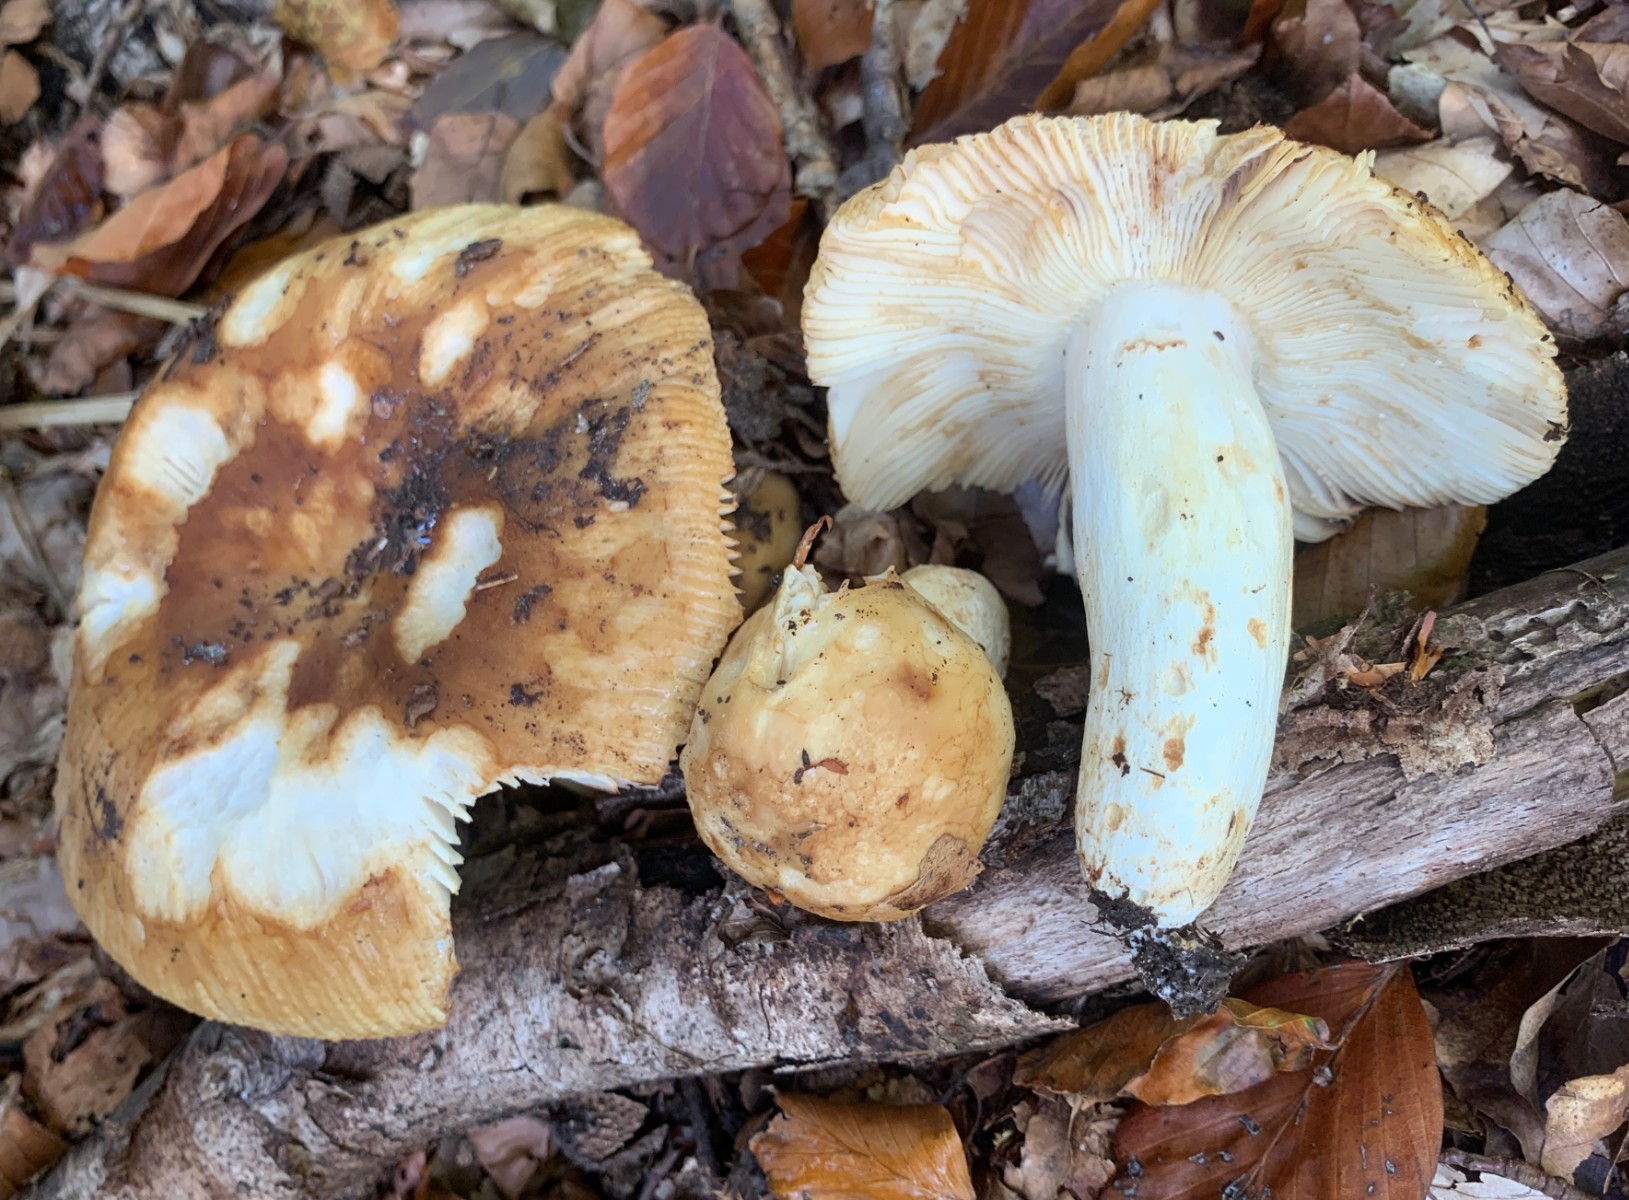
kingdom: Fungi
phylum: Basidiomycota
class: Agaricomycetes
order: Russulales
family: Russulaceae
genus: Russula
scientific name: Russula foetens
